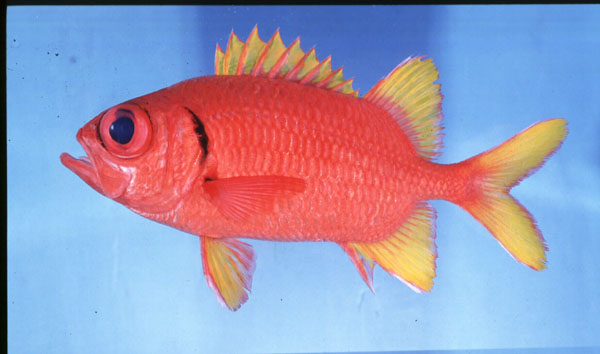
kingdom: Animalia
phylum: Chordata
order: Beryciformes
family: Holocentridae
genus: Myripristis
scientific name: Myripristis chryseres
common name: Golden-finned squirrelfish
